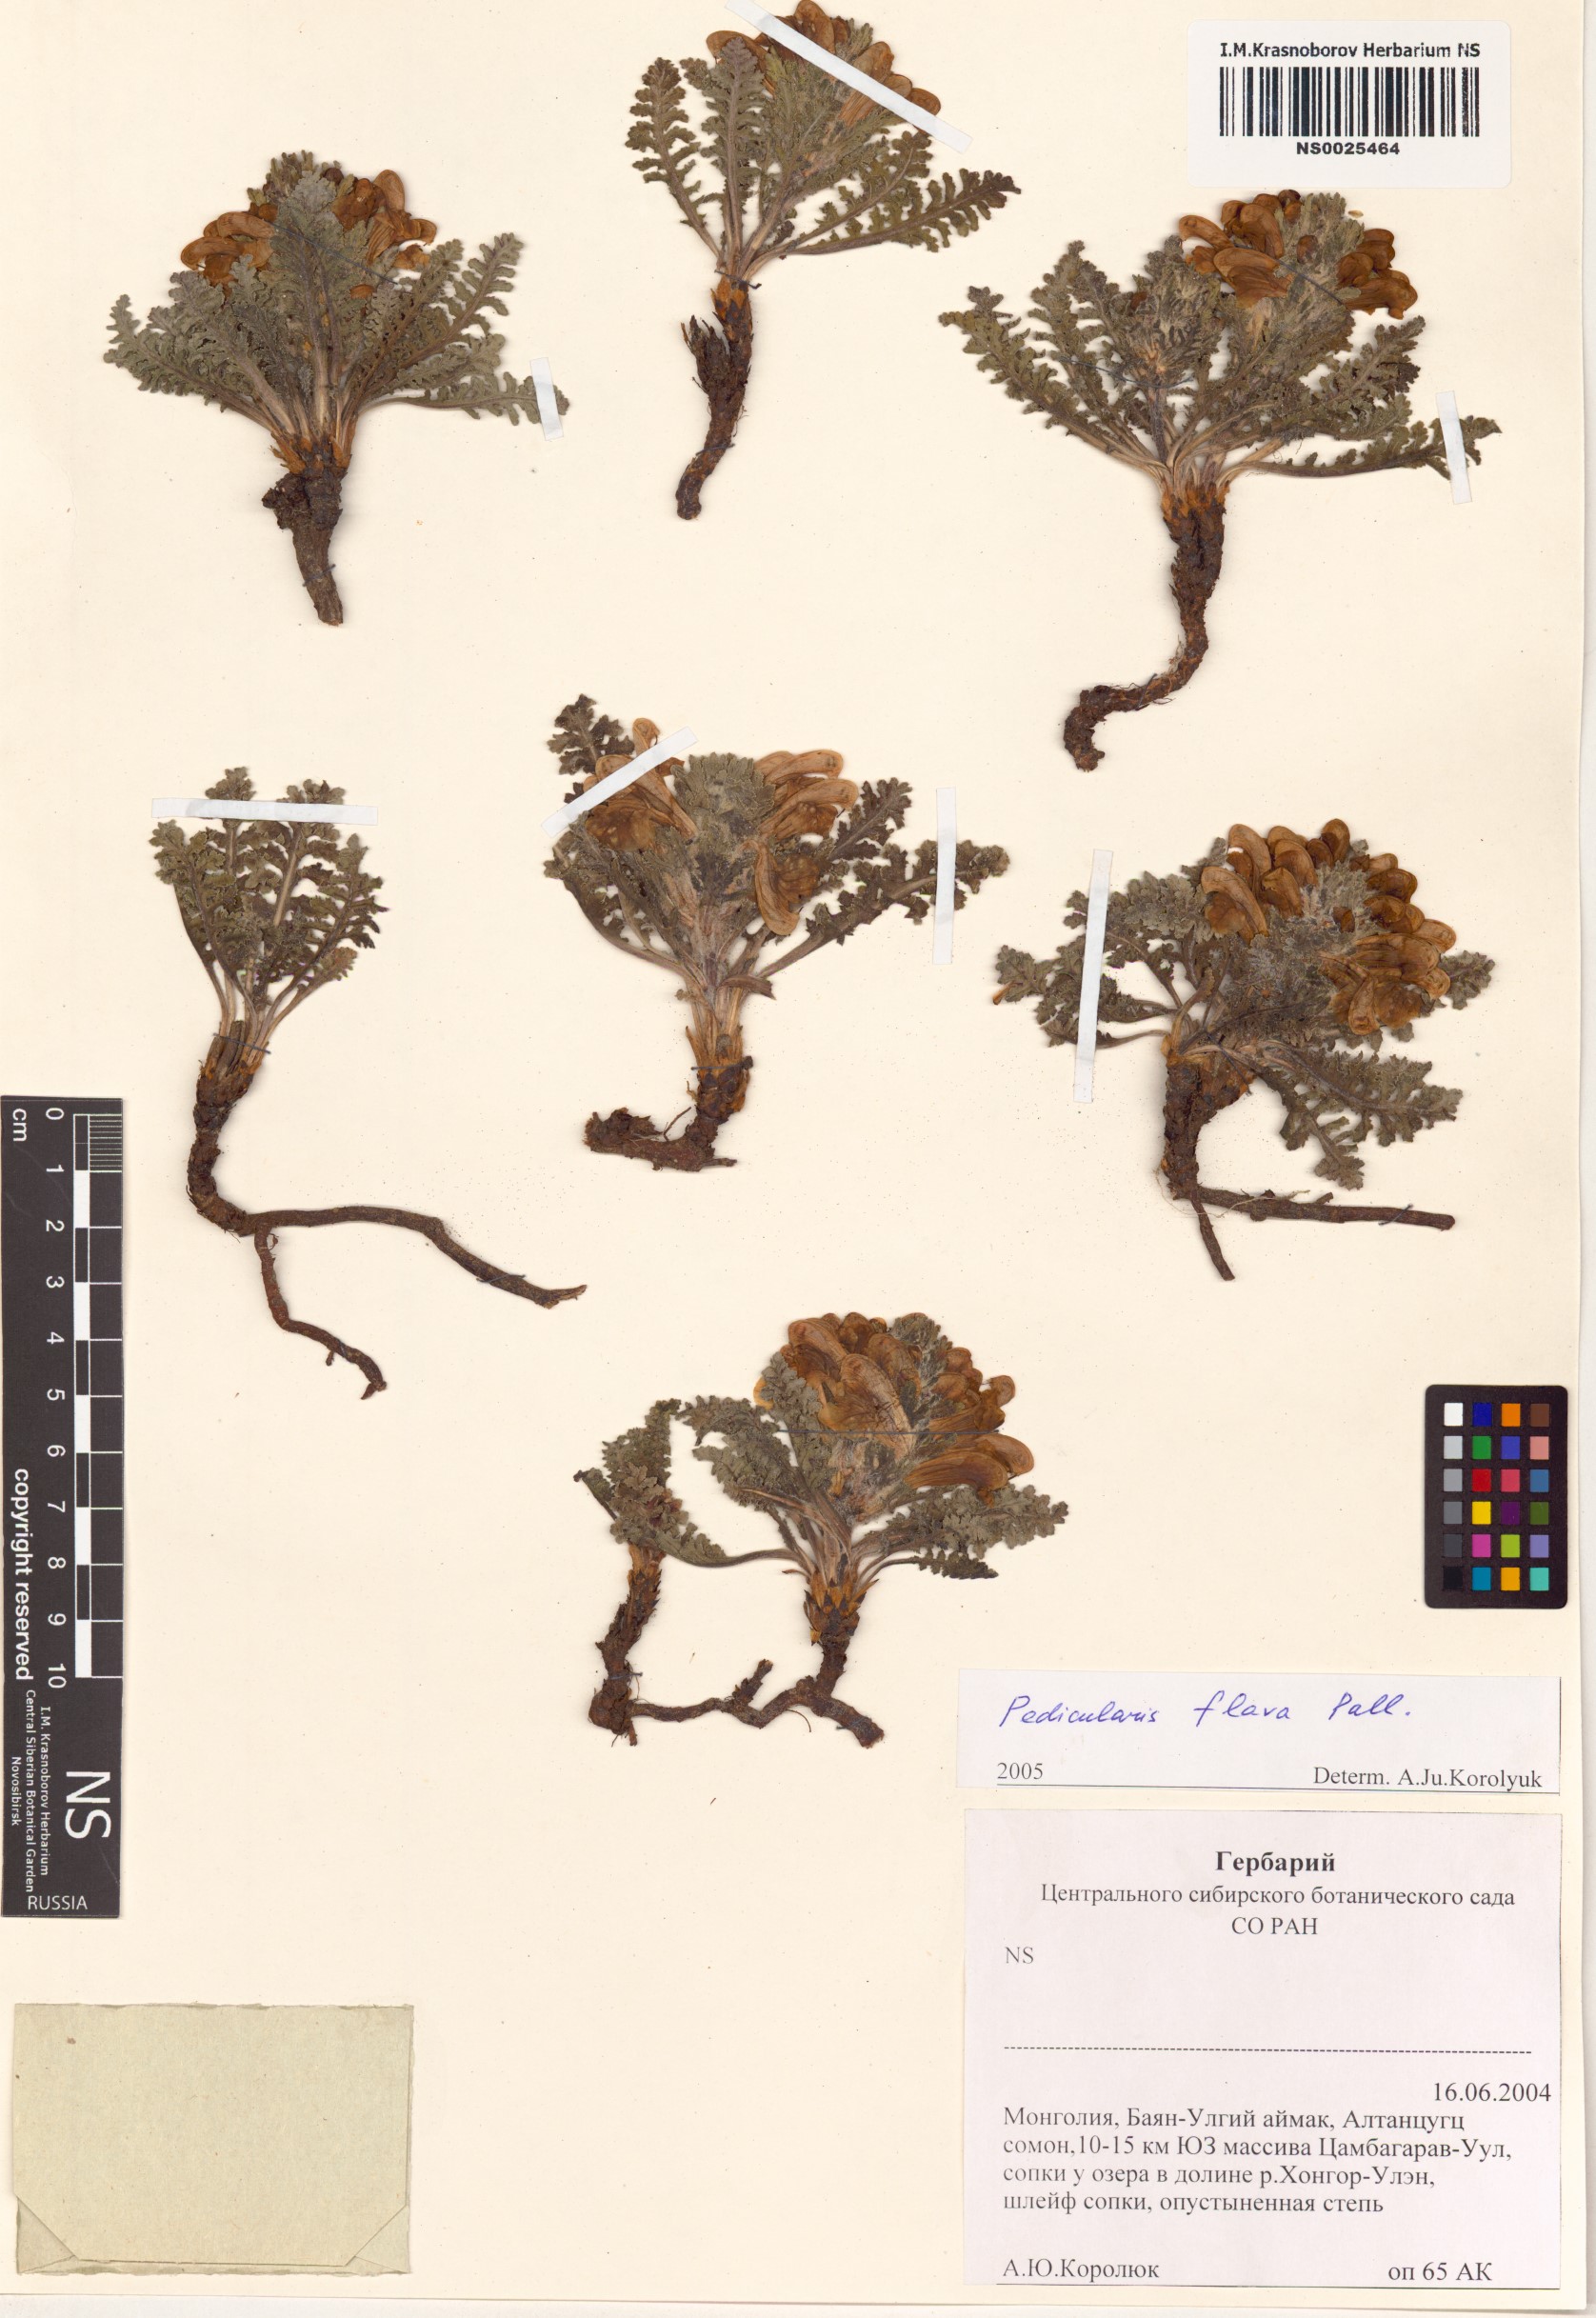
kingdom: Plantae
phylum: Tracheophyta
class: Magnoliopsida
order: Lamiales
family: Orobanchaceae
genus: Pedicularis
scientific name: Pedicularis flava
